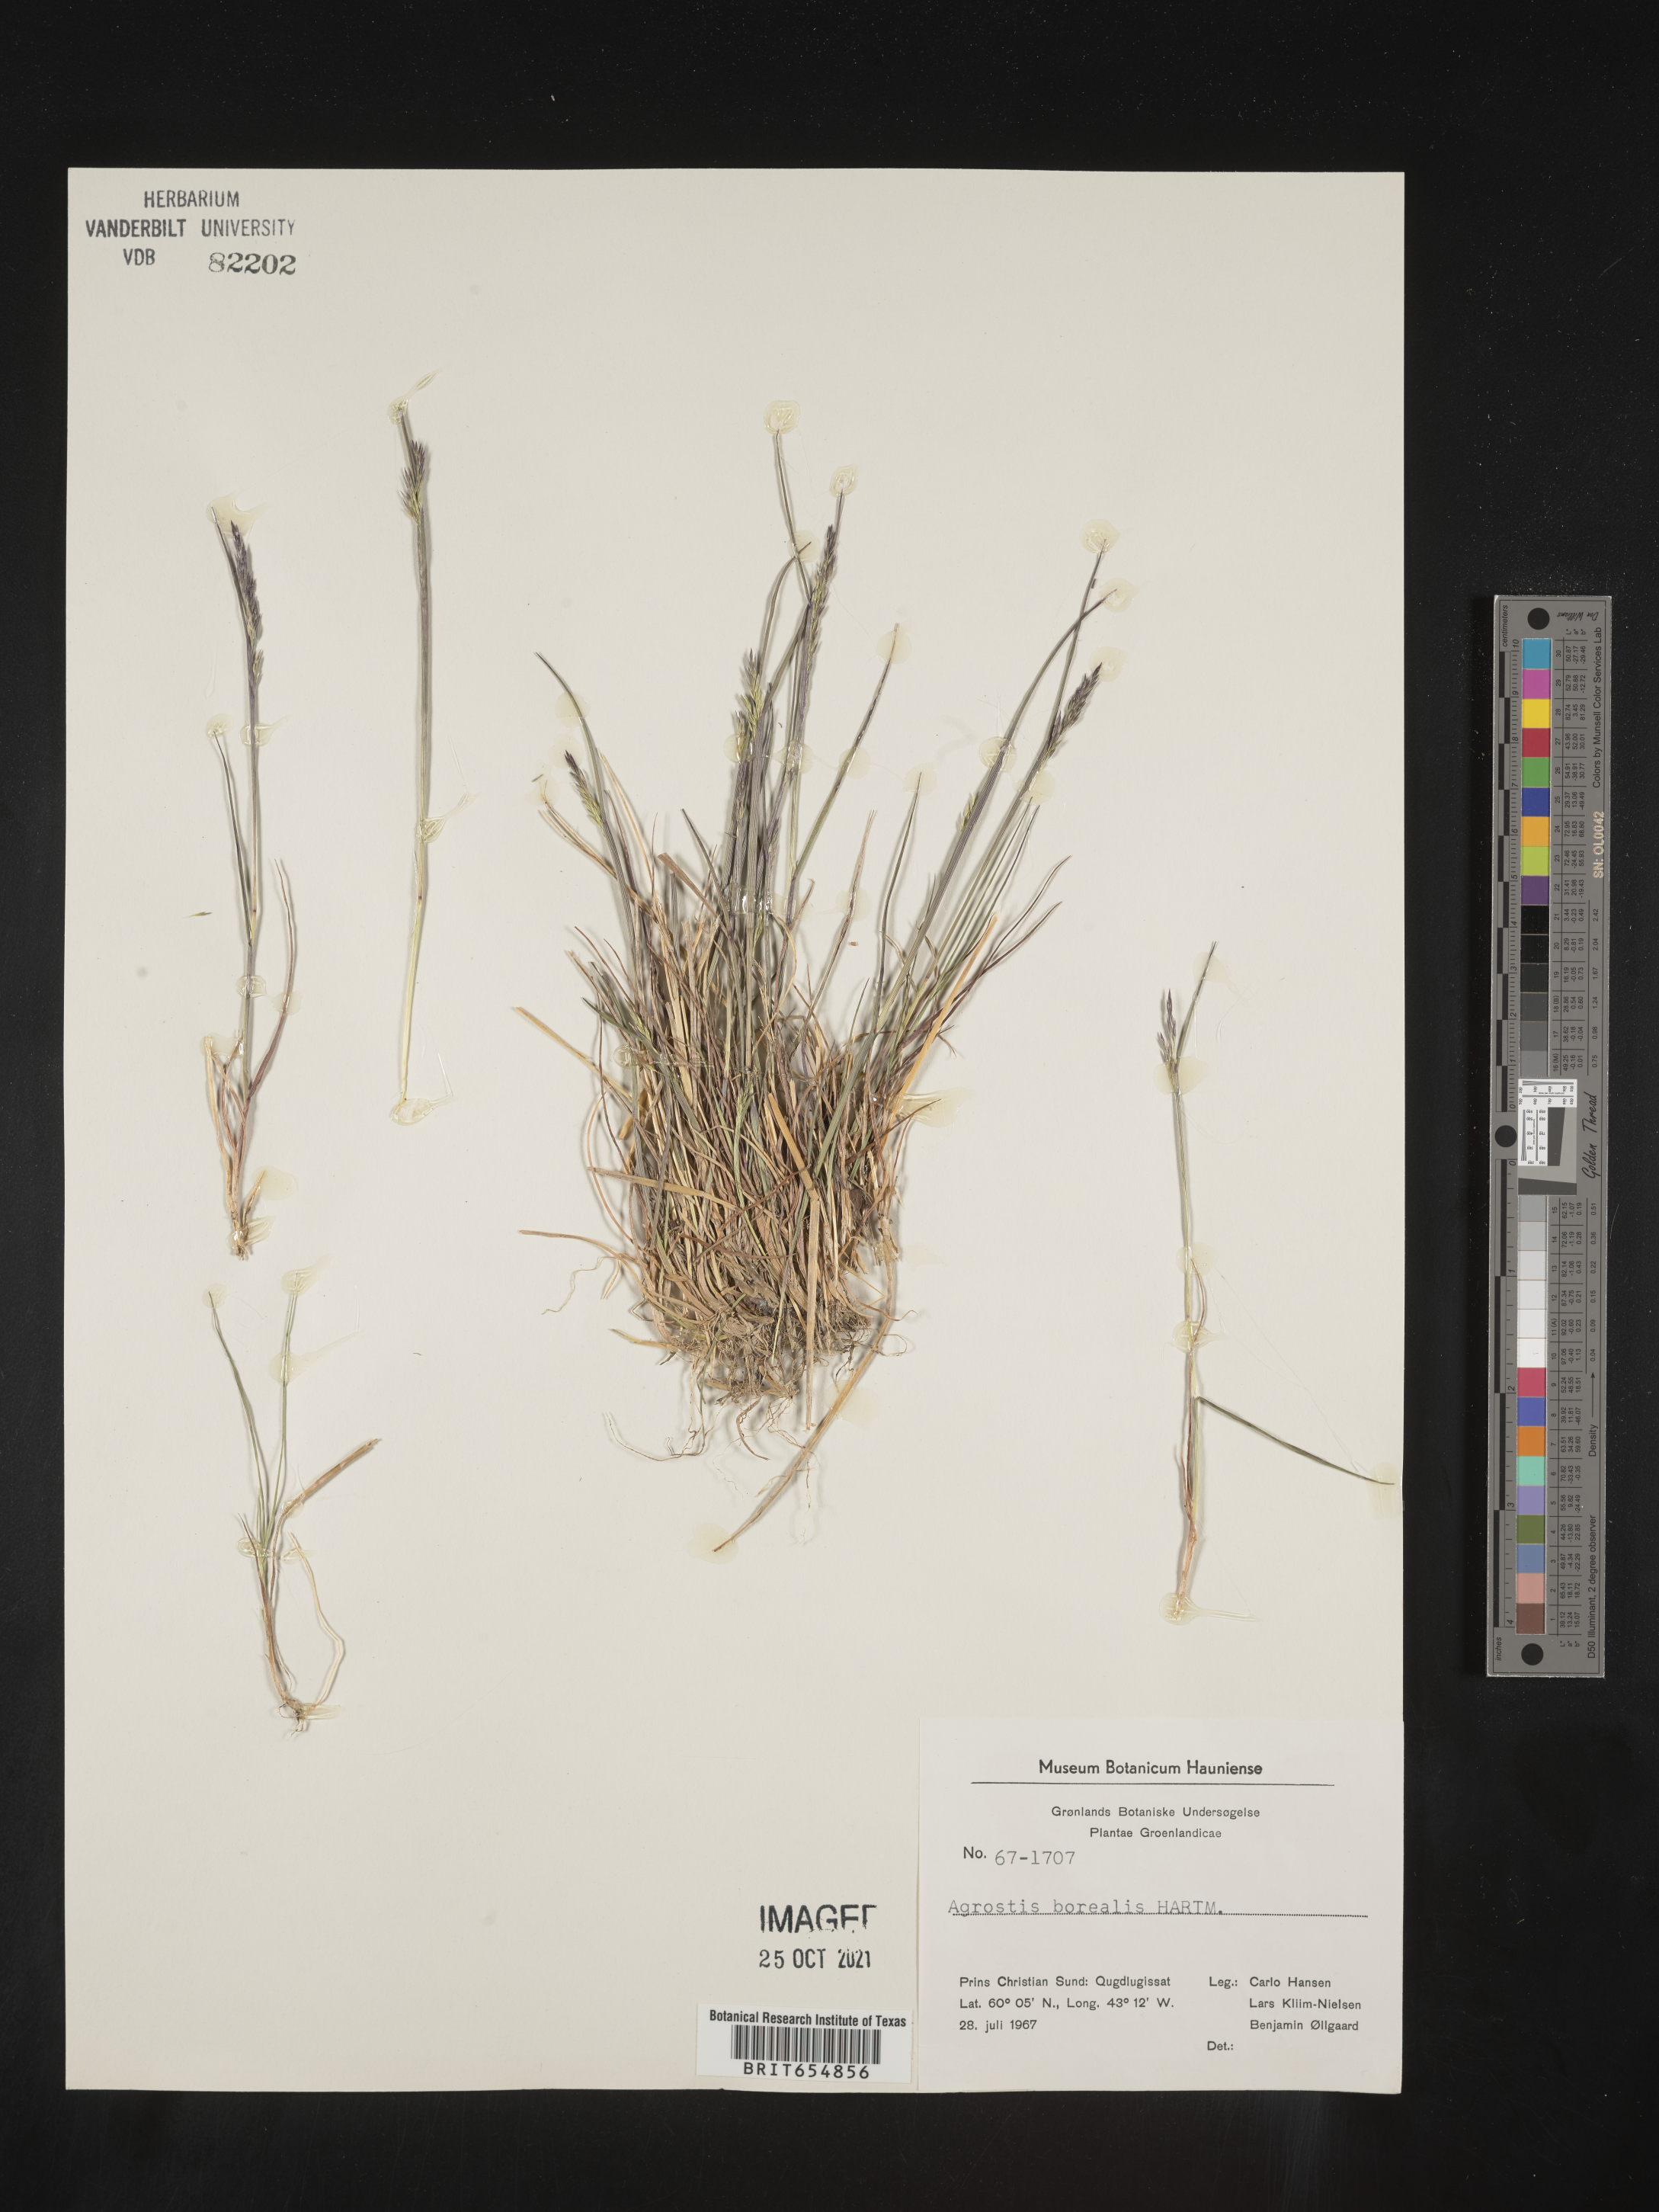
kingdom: Plantae
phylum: Tracheophyta
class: Liliopsida
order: Poales
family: Poaceae
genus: Agrostis
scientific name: Agrostis
